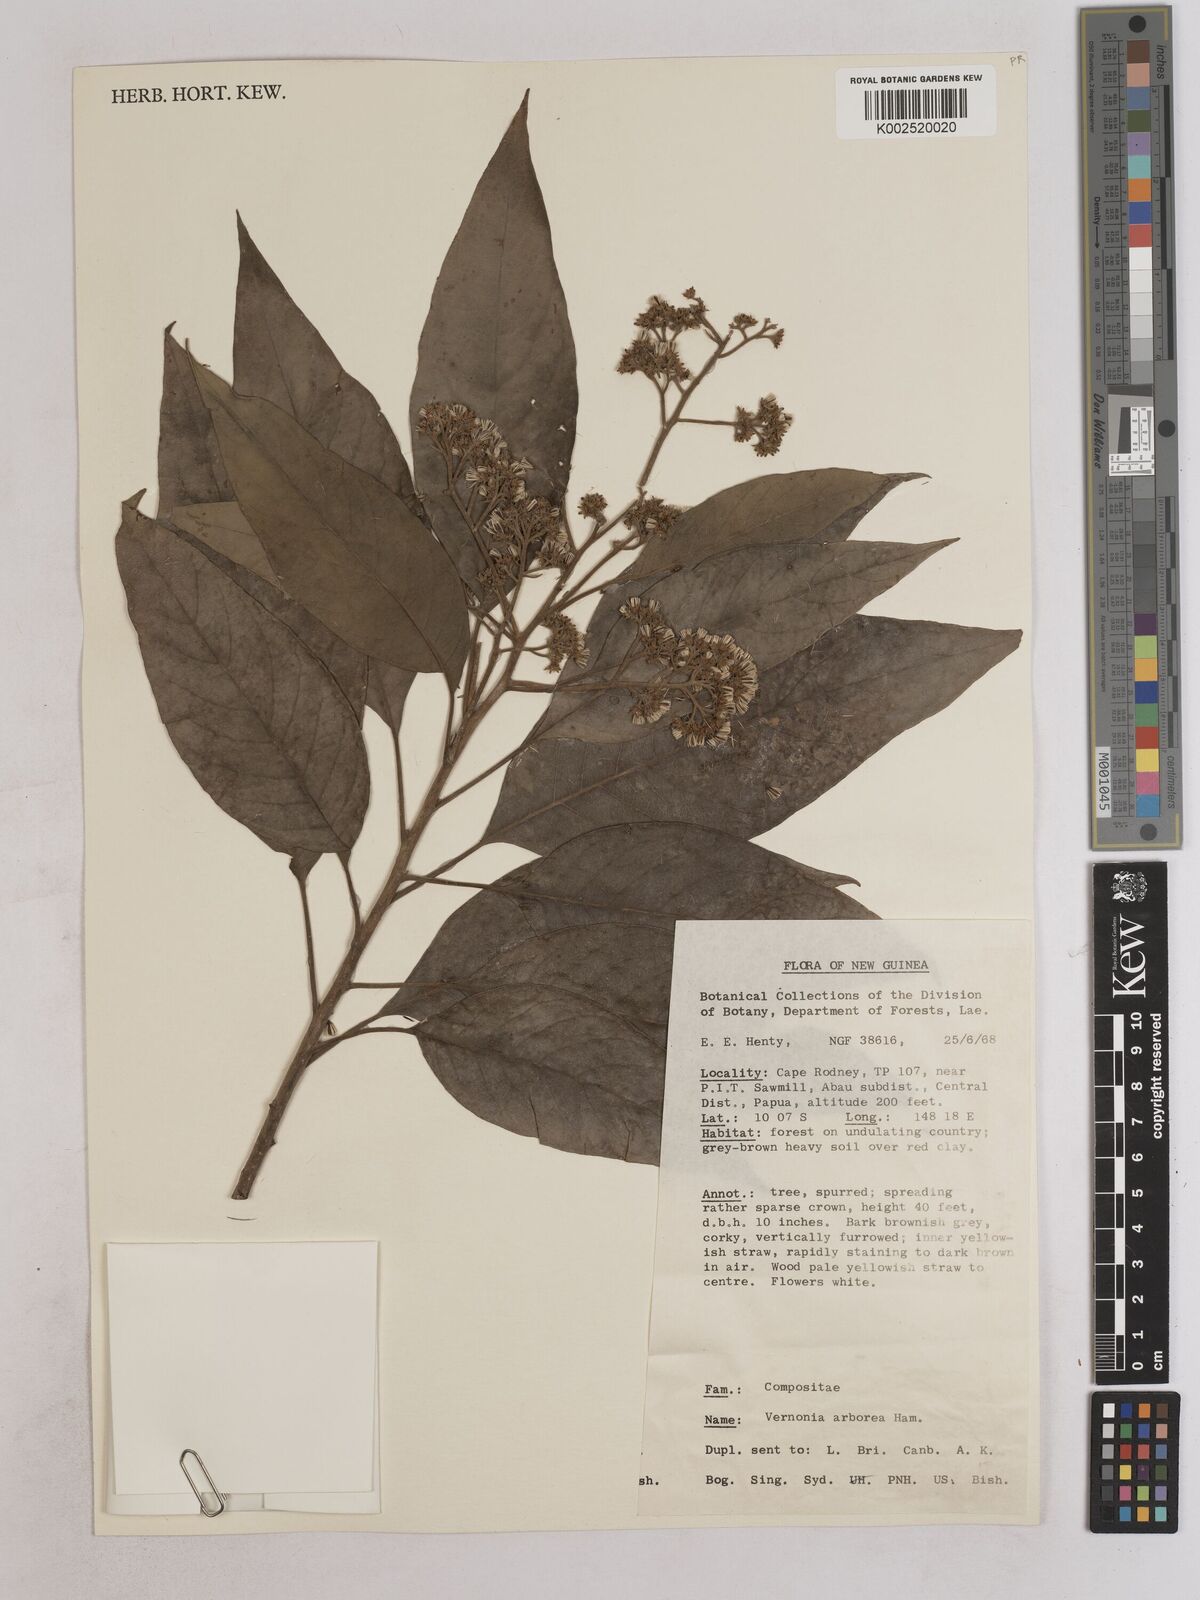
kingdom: Plantae
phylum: Tracheophyta
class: Magnoliopsida
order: Asterales
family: Asteraceae
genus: Strobocalyx
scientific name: Strobocalyx arborea
